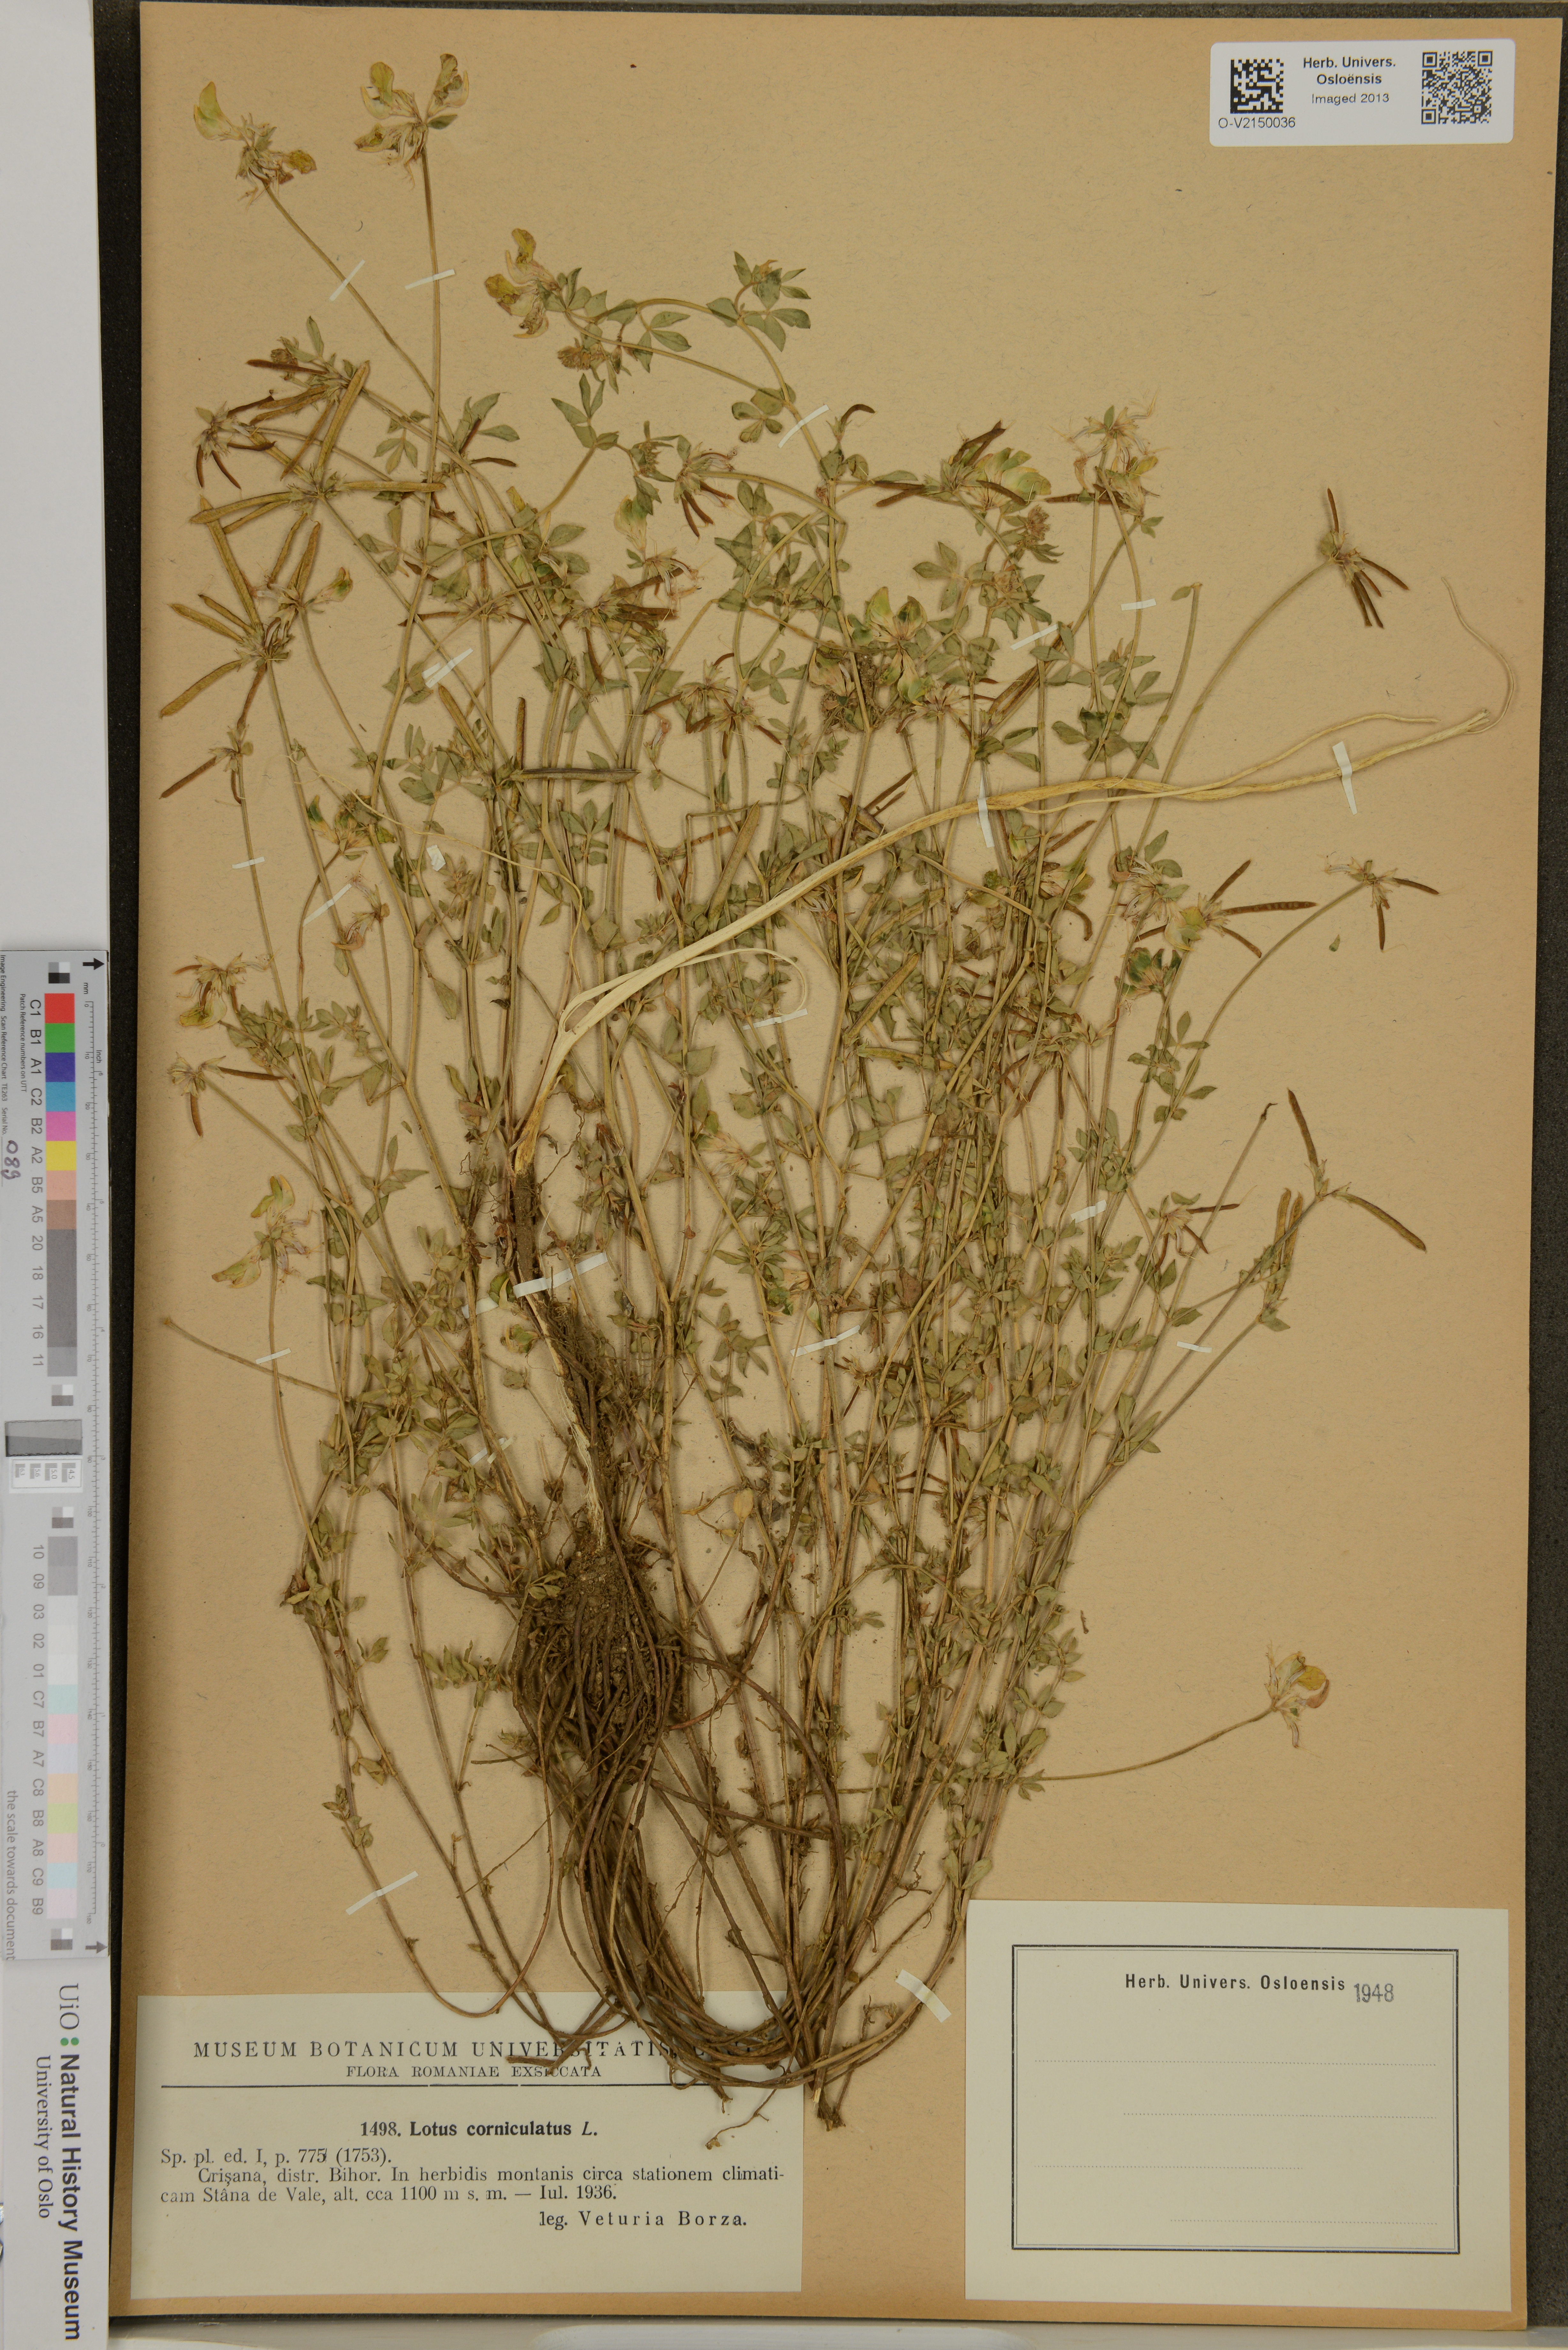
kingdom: Plantae
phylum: Tracheophyta
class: Magnoliopsida
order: Fabales
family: Fabaceae
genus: Lotus
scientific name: Lotus corniculatus
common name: Common bird's-foot-trefoil
